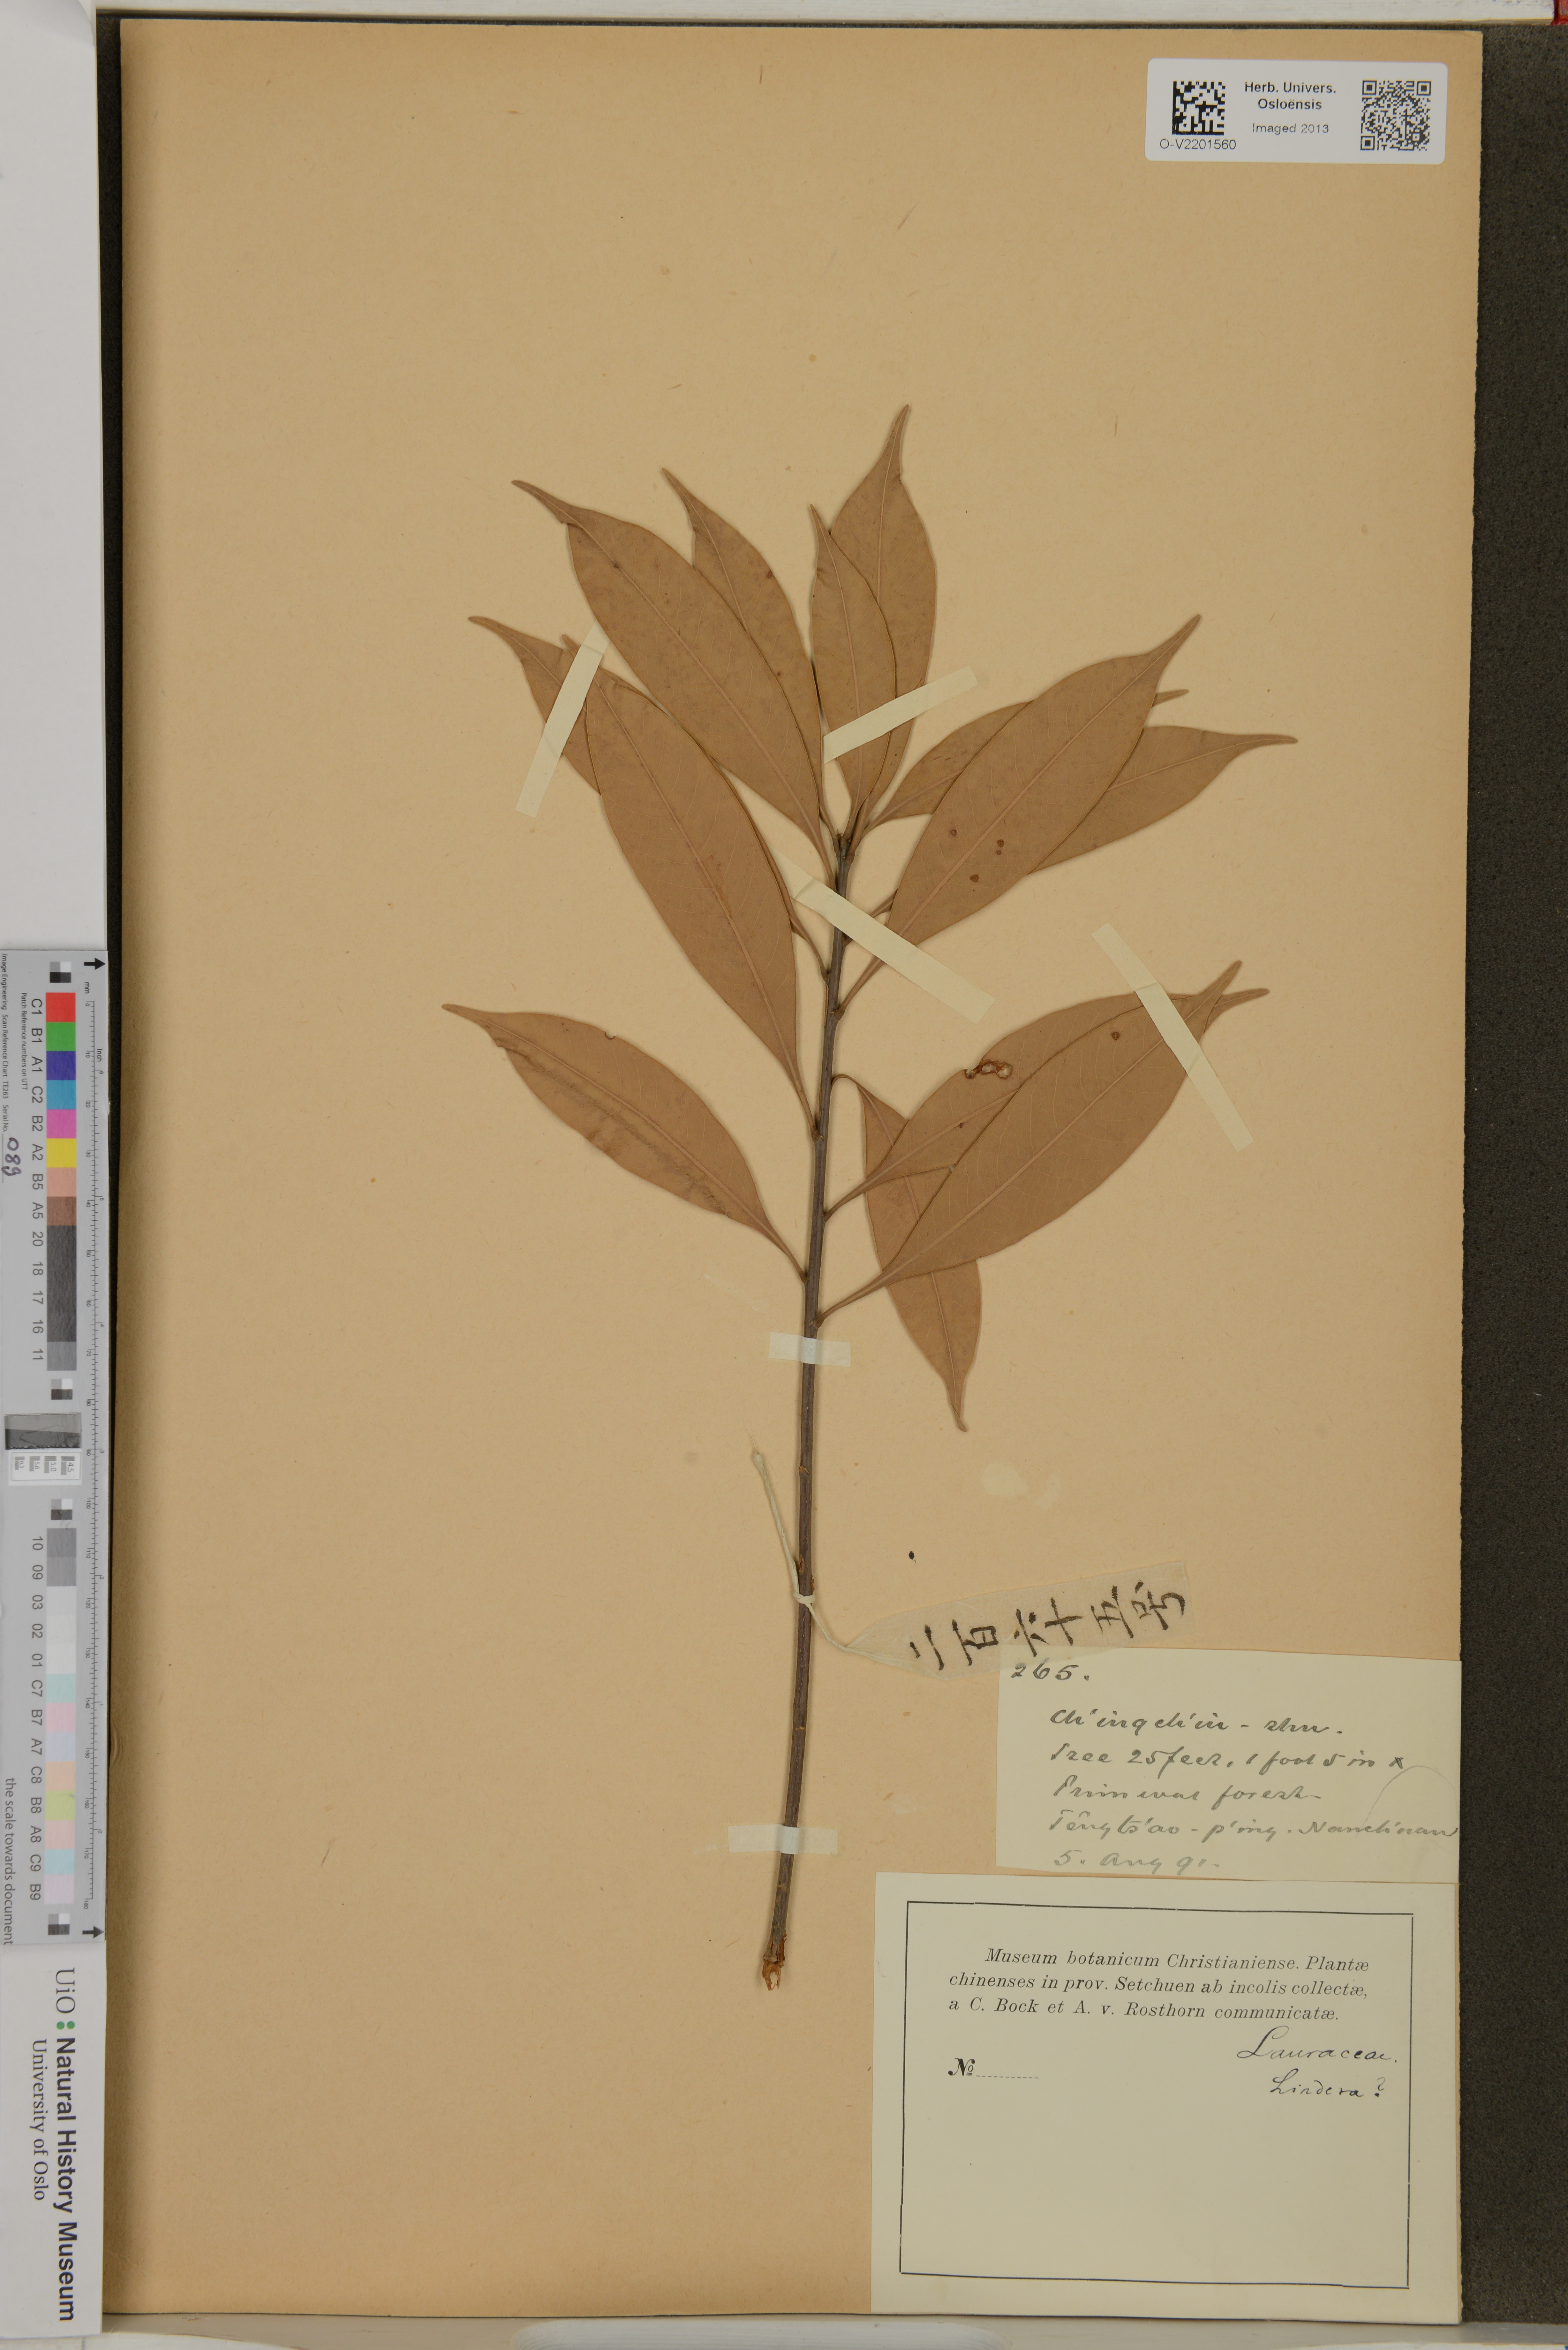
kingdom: Plantae
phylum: Tracheophyta
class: Magnoliopsida
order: Laurales
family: Lauraceae
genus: Lindera
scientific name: Lindera
